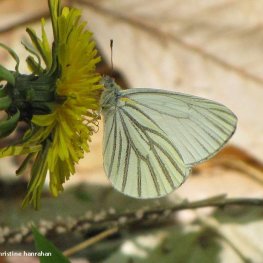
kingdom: Animalia
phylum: Arthropoda
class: Insecta
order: Lepidoptera
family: Pieridae
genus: Pieris
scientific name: Pieris oleracea
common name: Mustard White
